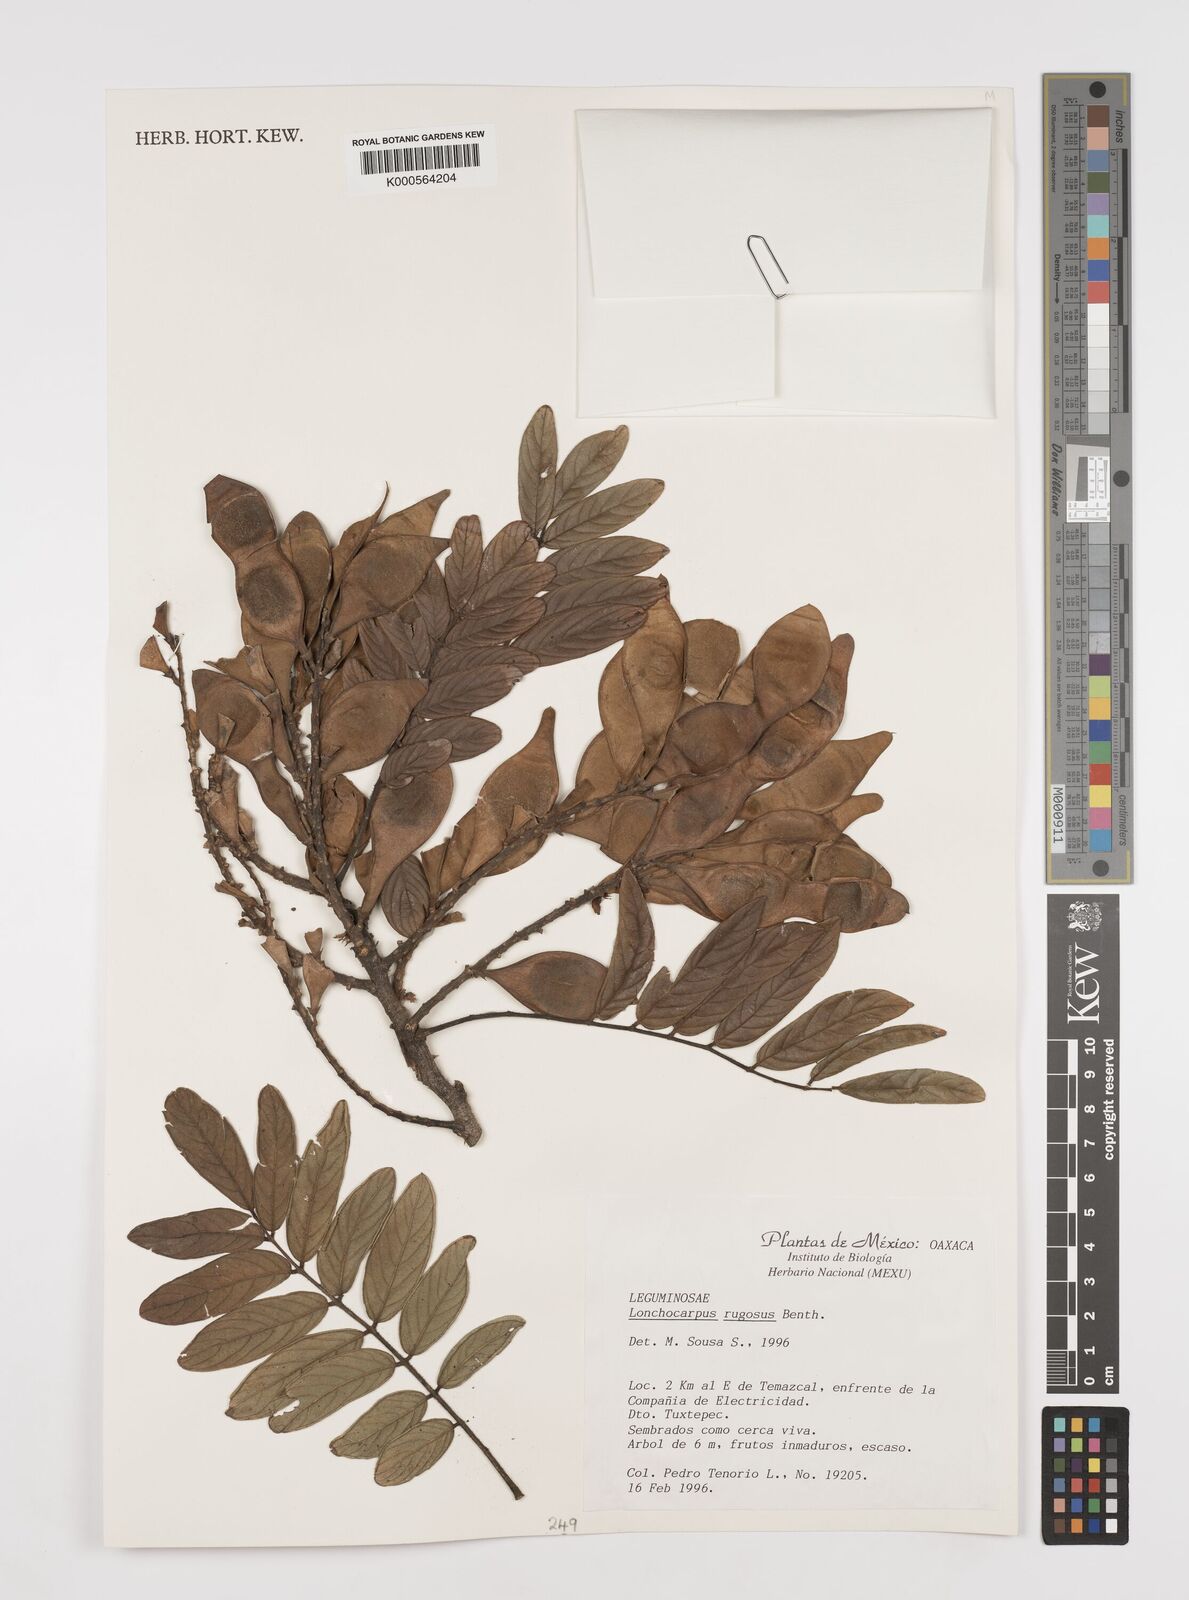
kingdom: Plantae
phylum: Tracheophyta
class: Magnoliopsida
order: Fabales
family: Fabaceae
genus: Lonchocarpus
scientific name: Lonchocarpus rugosus
